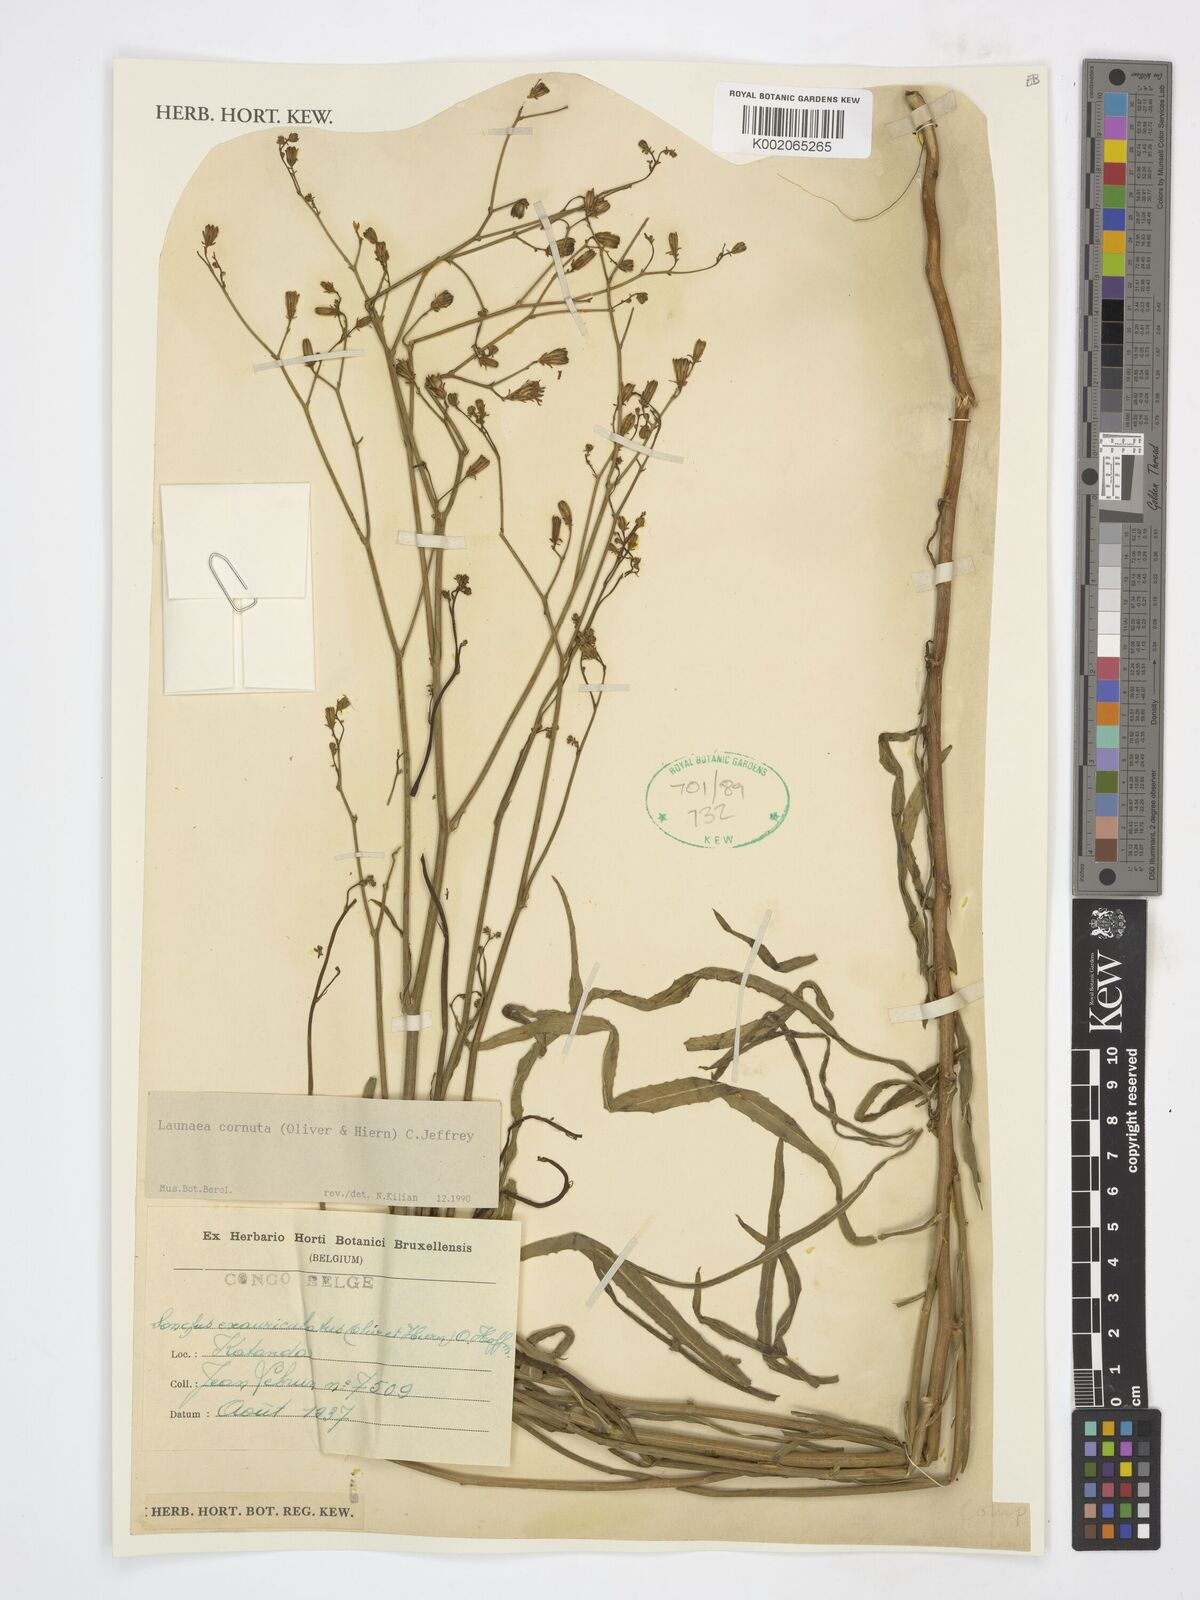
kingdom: Plantae
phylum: Tracheophyta
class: Magnoliopsida
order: Asterales
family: Asteraceae
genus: Launaea
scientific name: Launaea cornuta
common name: Bitter-lettuce
